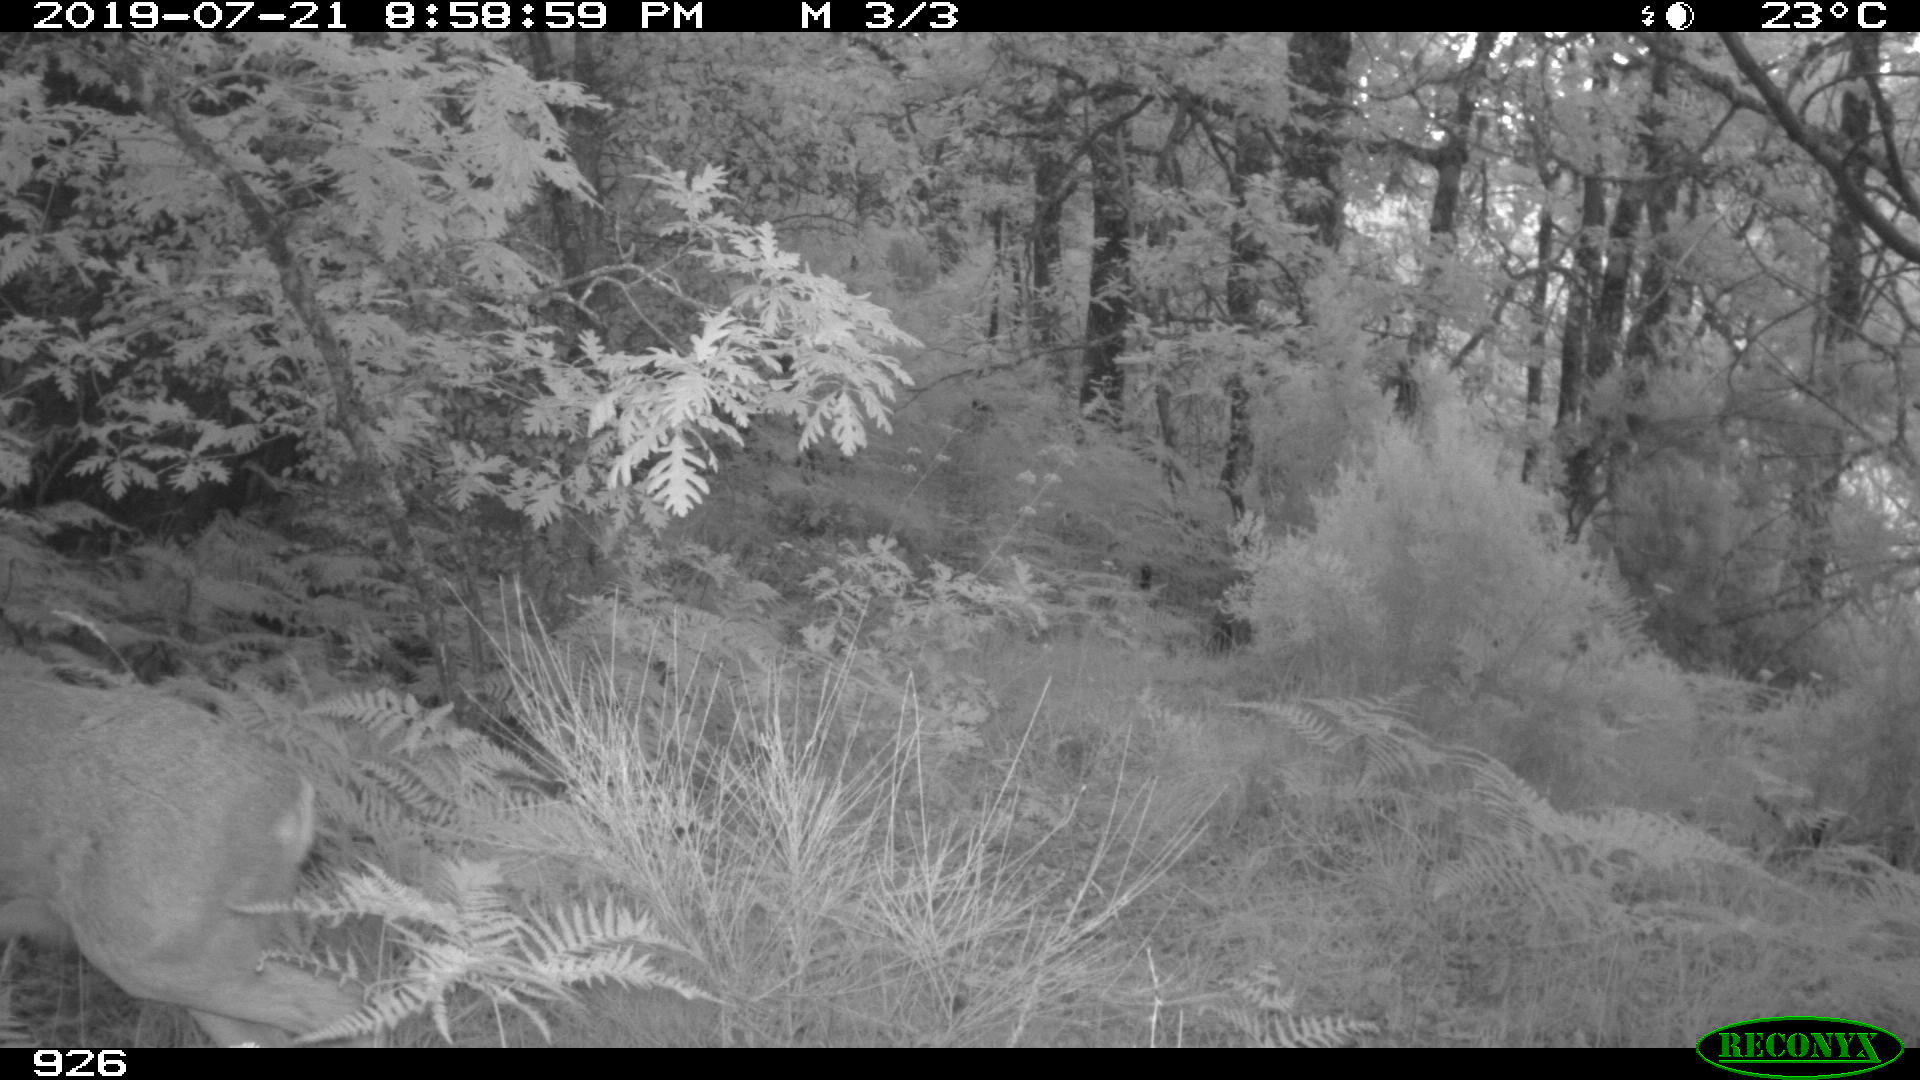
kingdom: Animalia
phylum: Chordata
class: Mammalia
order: Artiodactyla
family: Cervidae
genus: Capreolus
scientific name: Capreolus capreolus
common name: Western roe deer
